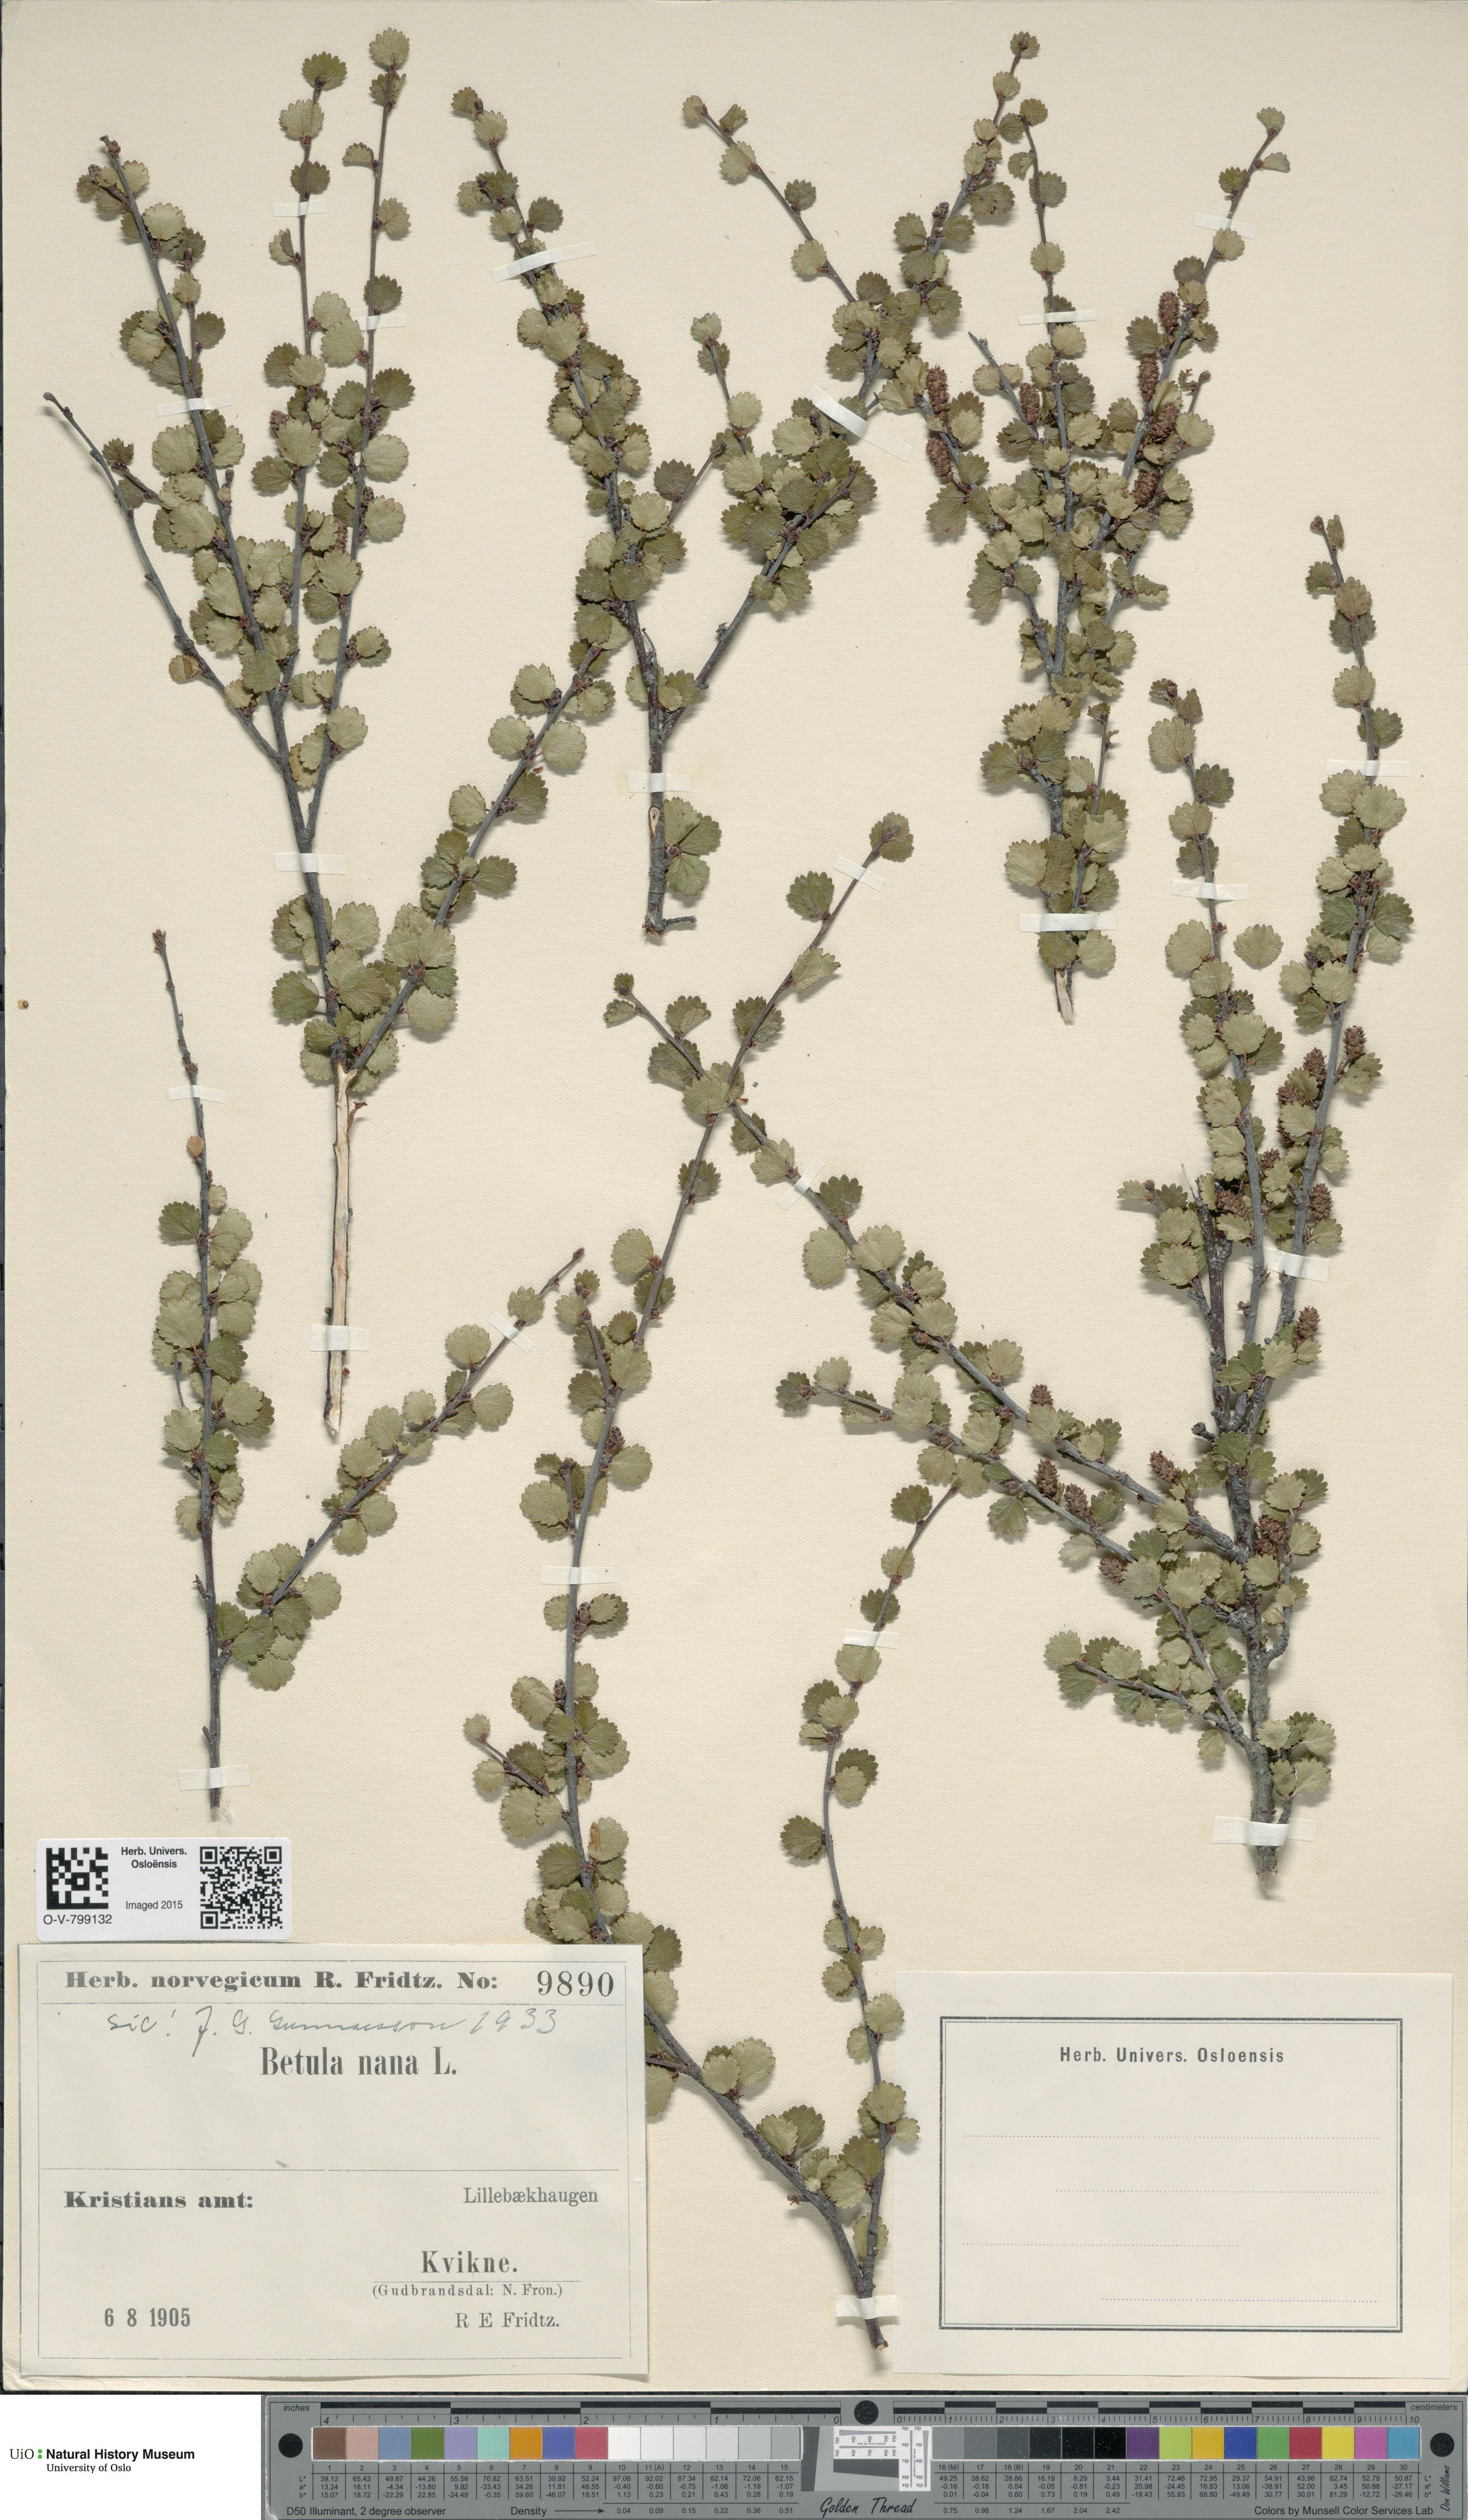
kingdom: Plantae
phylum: Tracheophyta
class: Magnoliopsida
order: Fagales
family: Betulaceae
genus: Betula
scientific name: Betula nana
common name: Arctic dwarf birch
